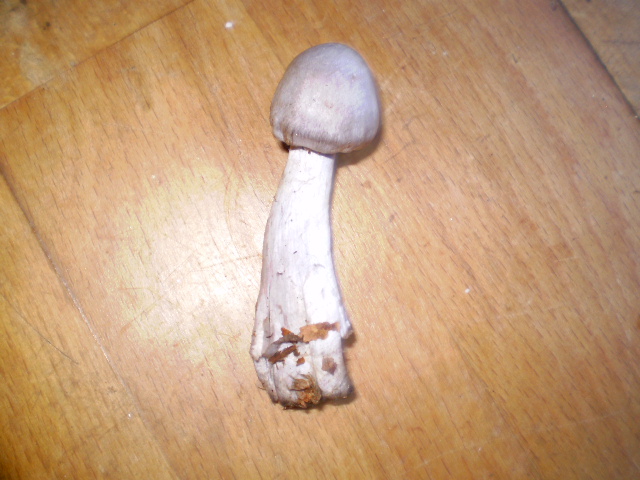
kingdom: Fungi
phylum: Basidiomycota
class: Agaricomycetes
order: Agaricales
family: Cortinariaceae
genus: Cortinarius
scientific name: Cortinarius alboviolaceus
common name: lysviolet slørhat
